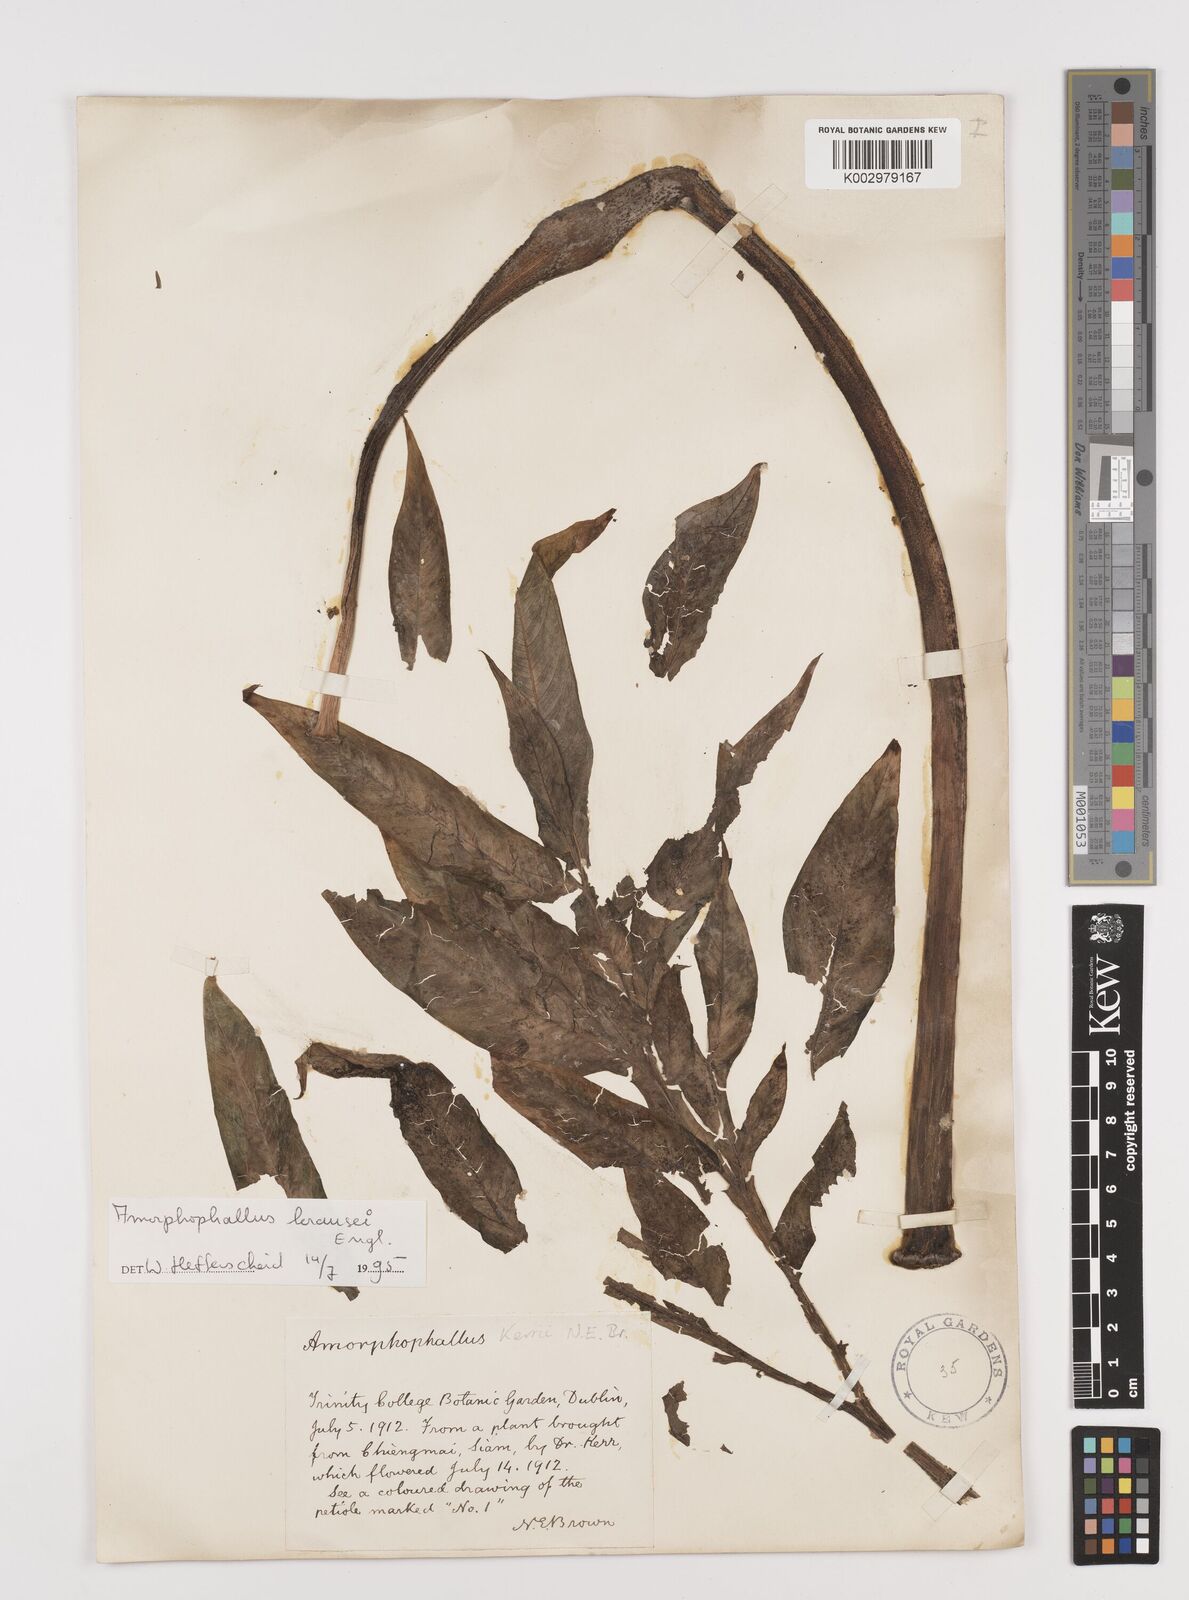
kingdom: Plantae
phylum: Tracheophyta
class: Liliopsida
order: Alismatales
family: Araceae
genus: Amorphophallus
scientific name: Amorphophallus krausei
